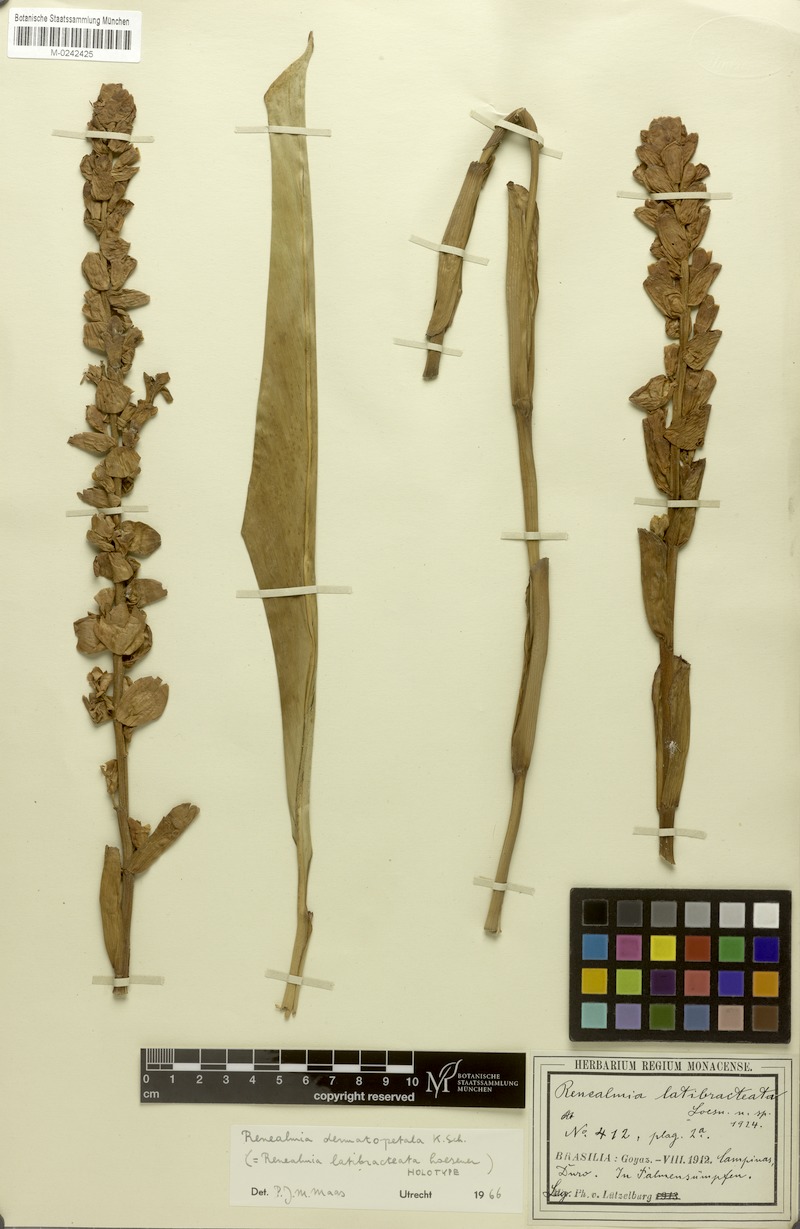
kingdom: Plantae
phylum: Tracheophyta
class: Liliopsida
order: Zingiberales
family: Zingiberaceae
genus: Renealmia
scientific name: Renealmia dermatopetala
